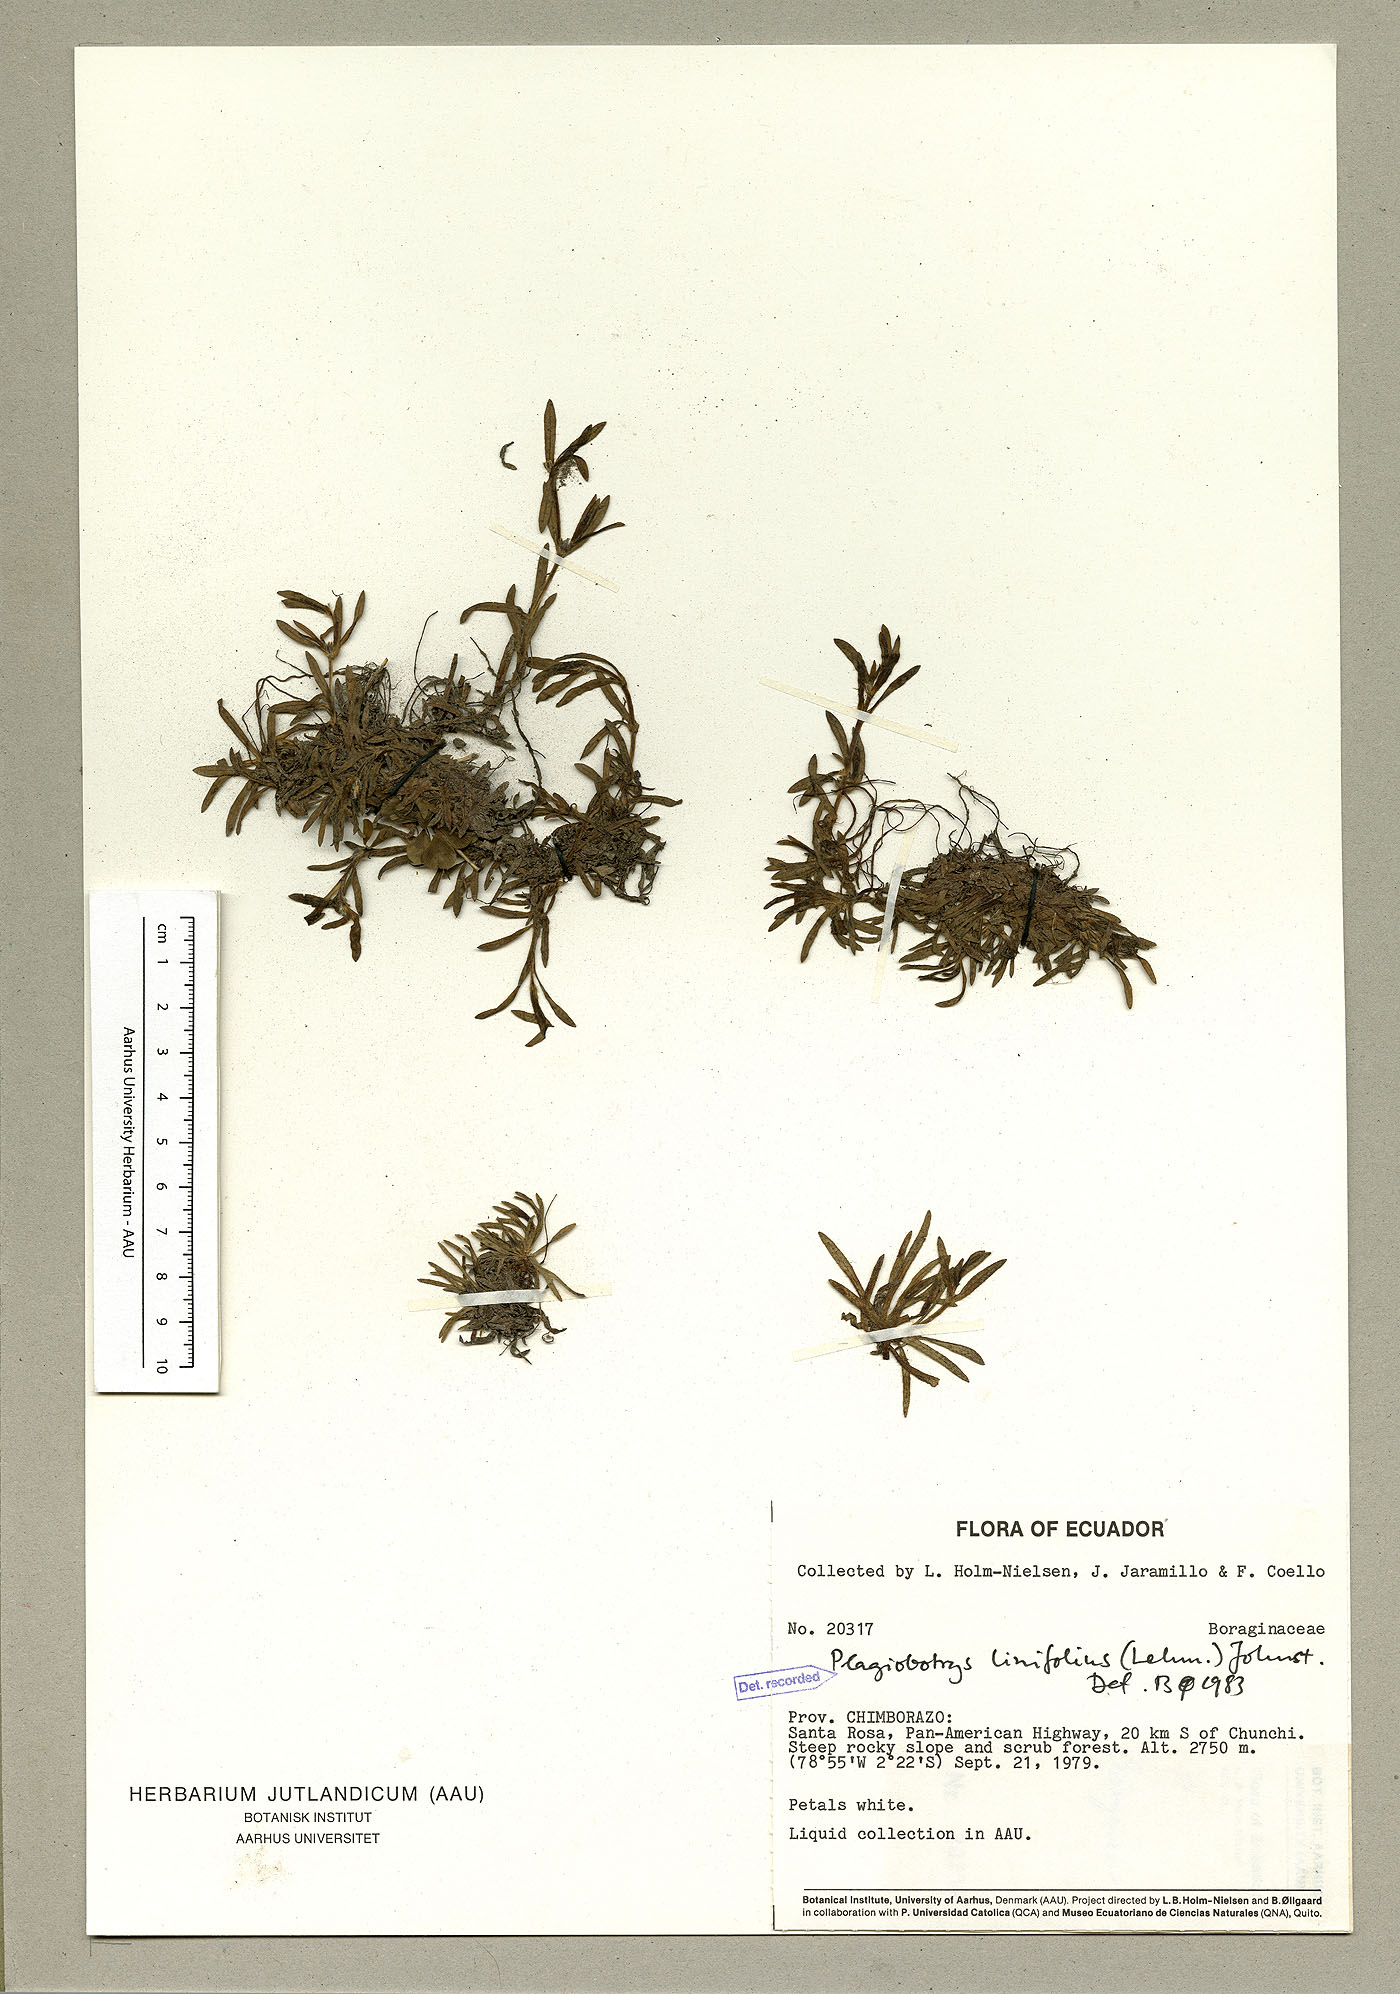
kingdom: Plantae
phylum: Tracheophyta
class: Magnoliopsida
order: Boraginales
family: Boraginaceae
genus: Plagiobothrys
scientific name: Plagiobothrys linifolius
